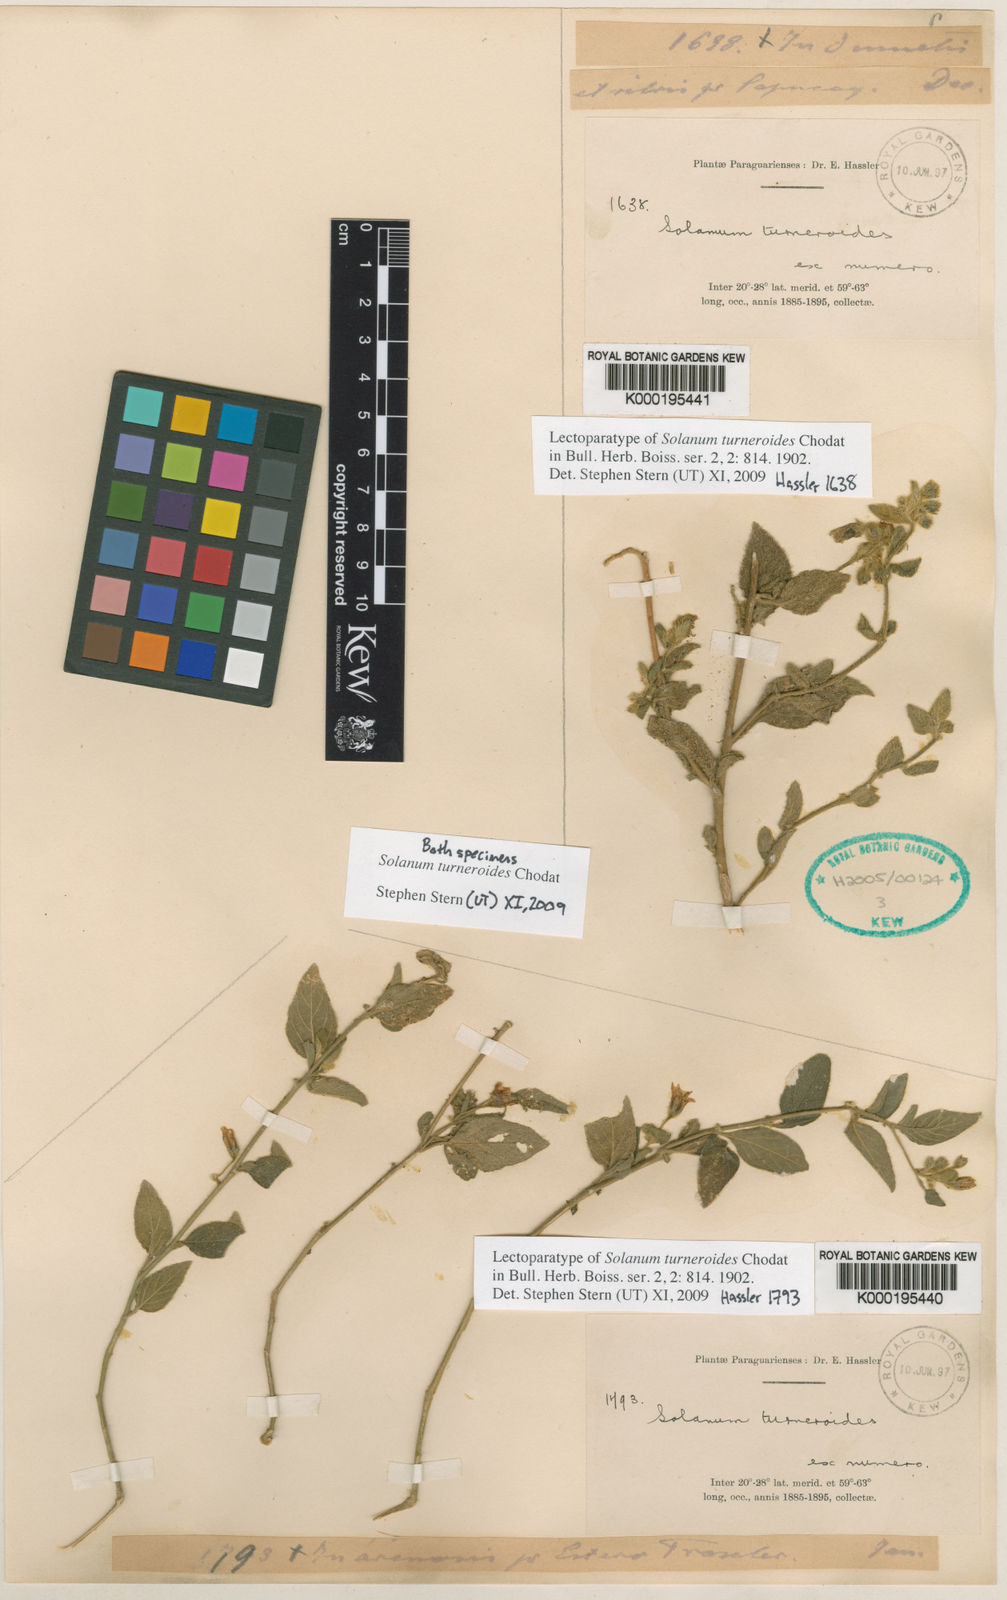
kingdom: Plantae
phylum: Tracheophyta
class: Magnoliopsida
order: Solanales
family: Solanaceae
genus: Solanum
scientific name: Solanum turneroides
